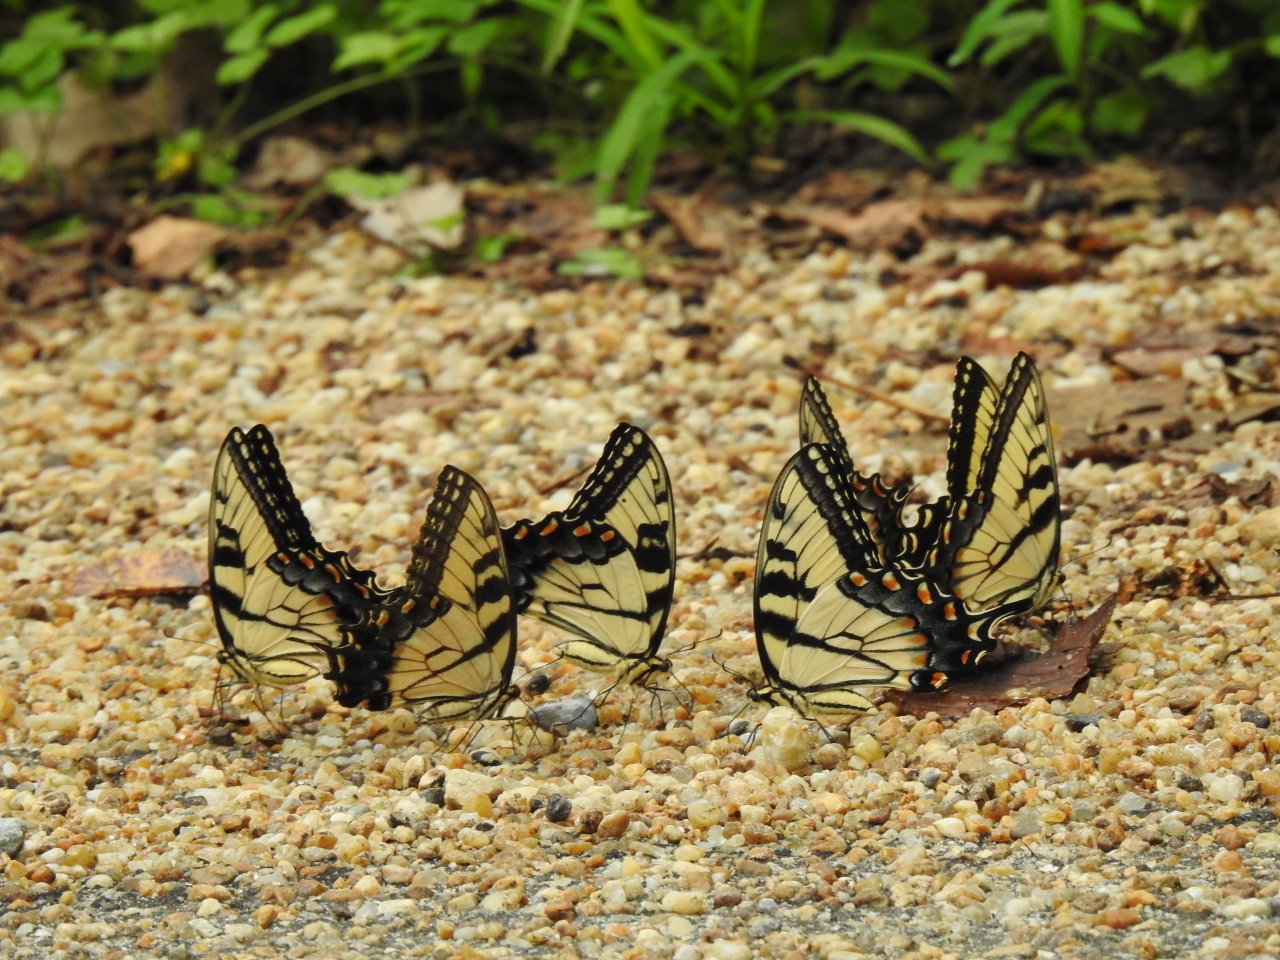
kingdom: Animalia
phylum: Arthropoda
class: Insecta
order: Lepidoptera
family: Papilionidae
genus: Pterourus
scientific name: Pterourus glaucus
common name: Eastern Tiger Swallowtail
